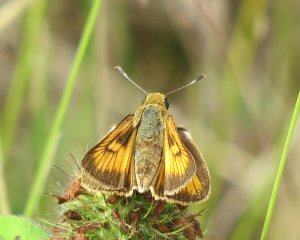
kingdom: Animalia
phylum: Arthropoda
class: Insecta
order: Lepidoptera
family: Hesperiidae
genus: Atrytone
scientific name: Atrytone delaware
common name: Delaware Skipper
